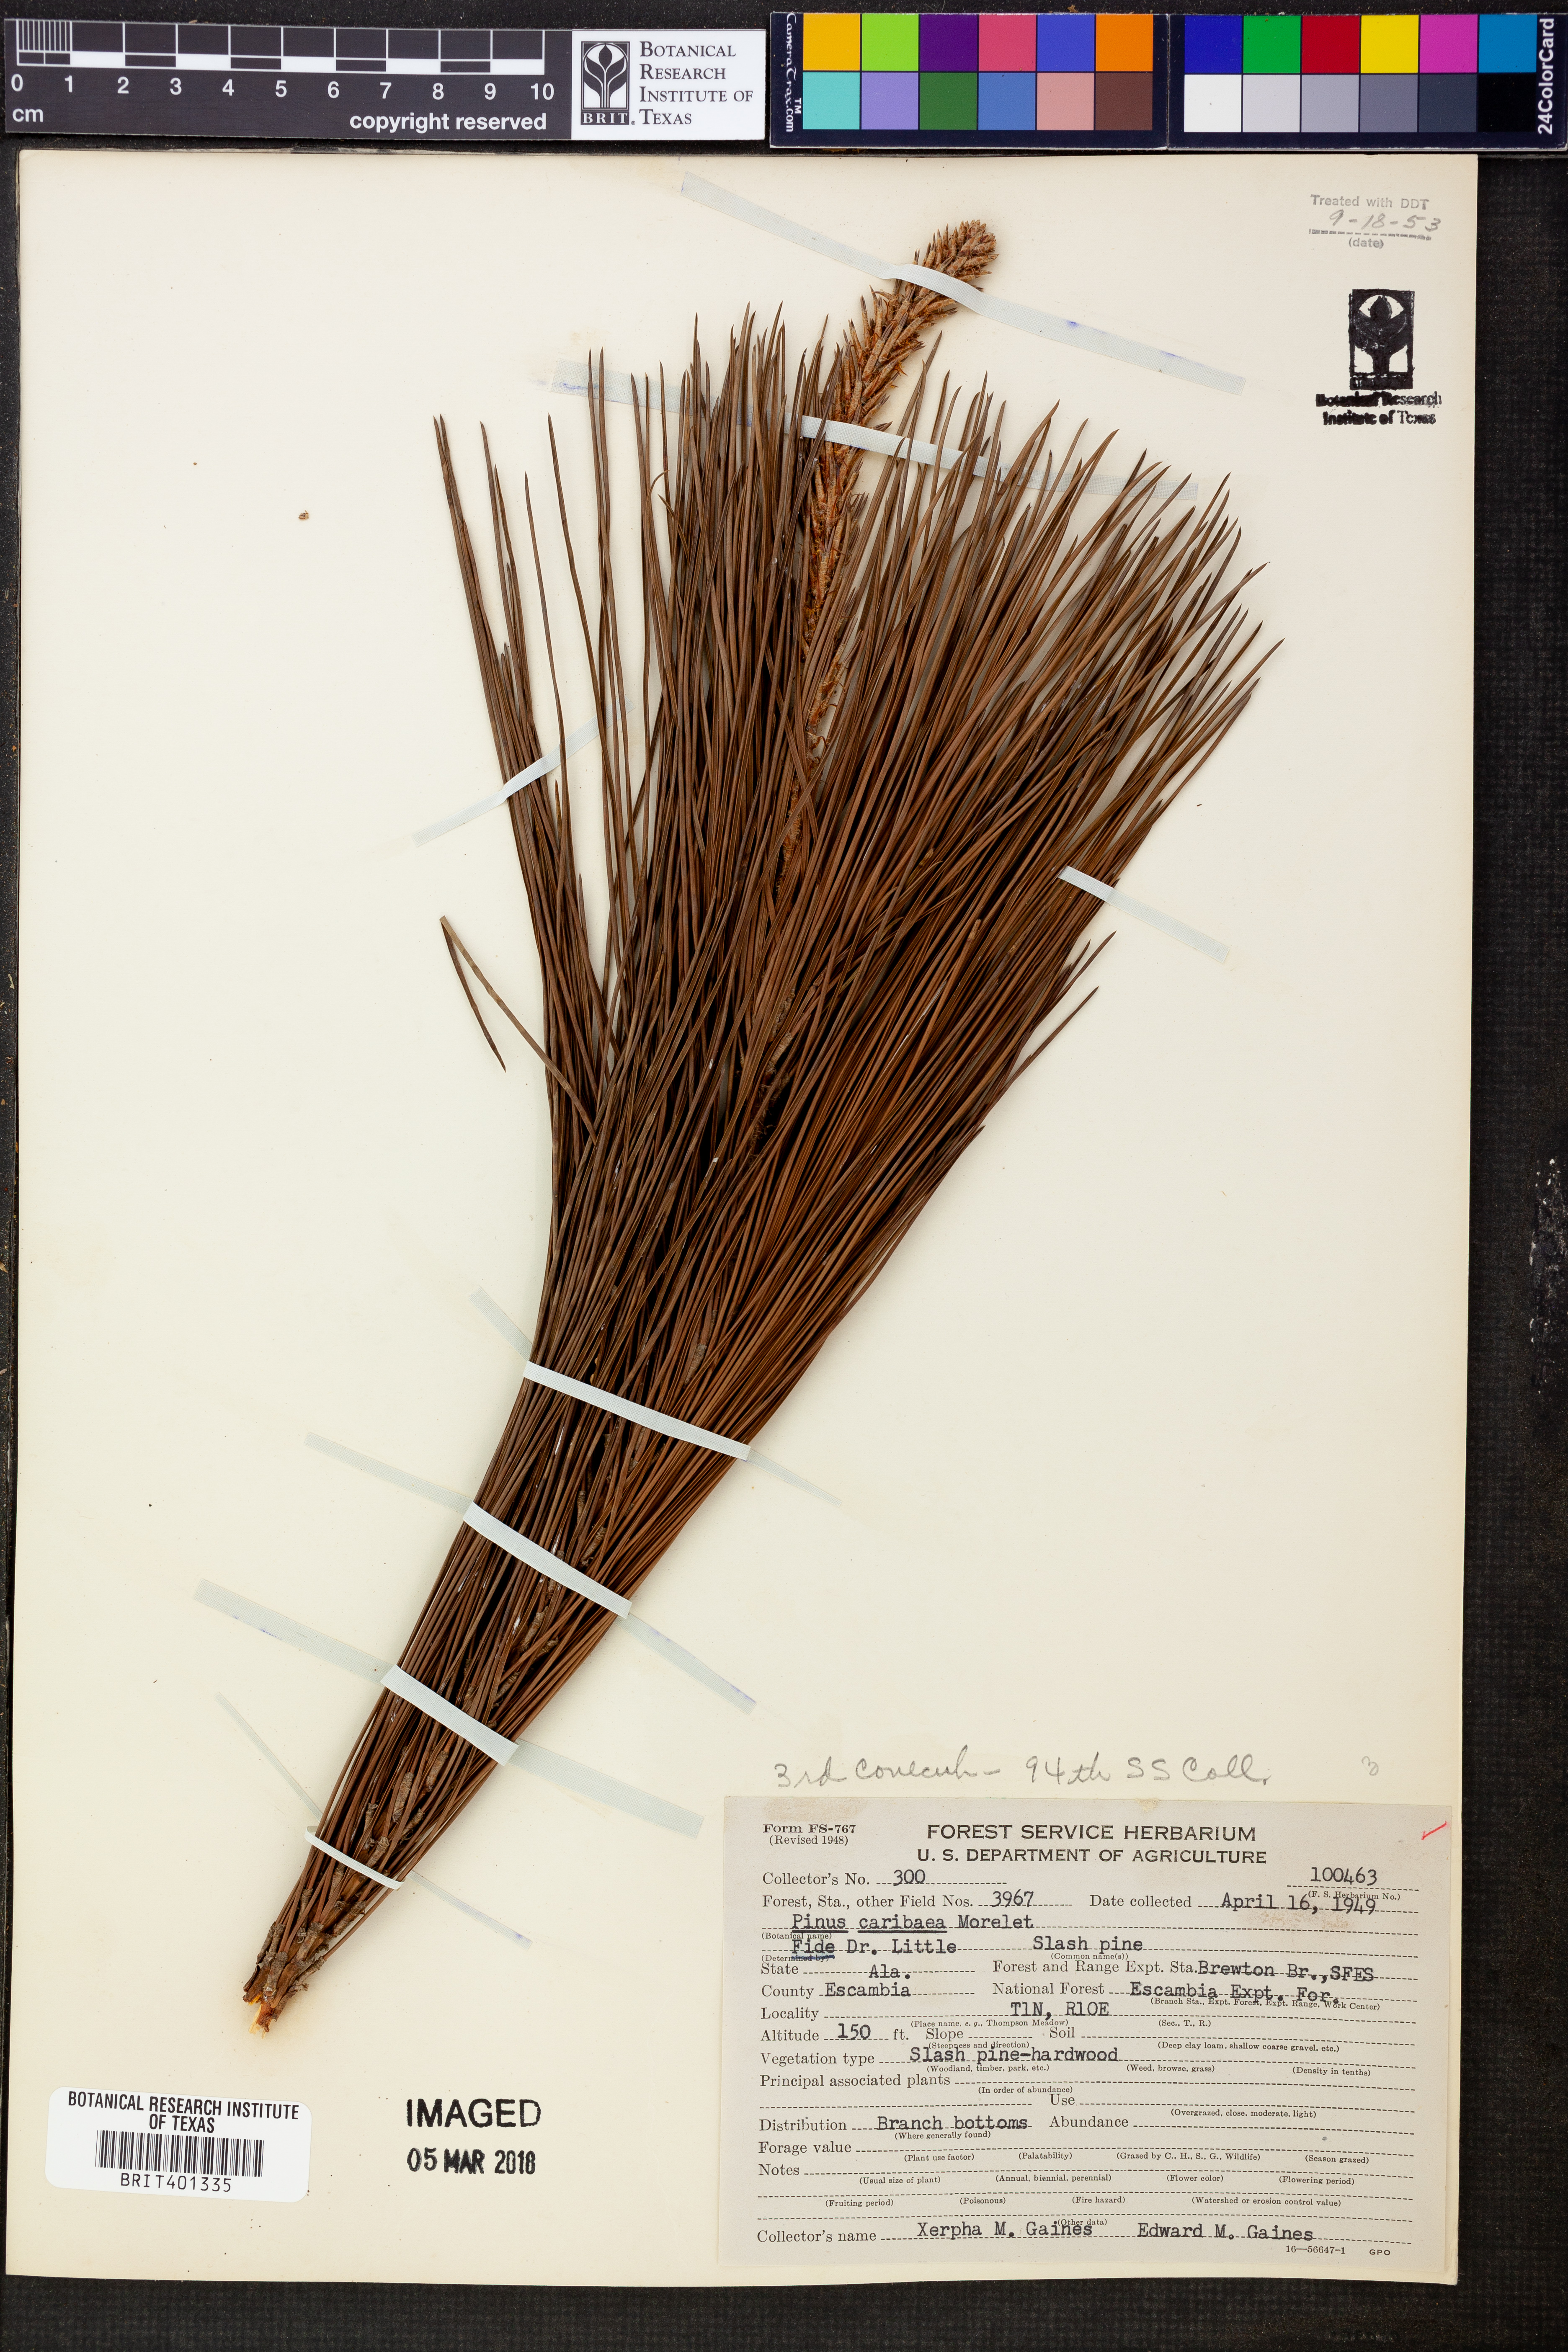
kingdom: Plantae
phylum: Tracheophyta
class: Pinopsida
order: Pinales
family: Pinaceae
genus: Pinus
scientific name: Pinus caribaea
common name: Caribbean pine
